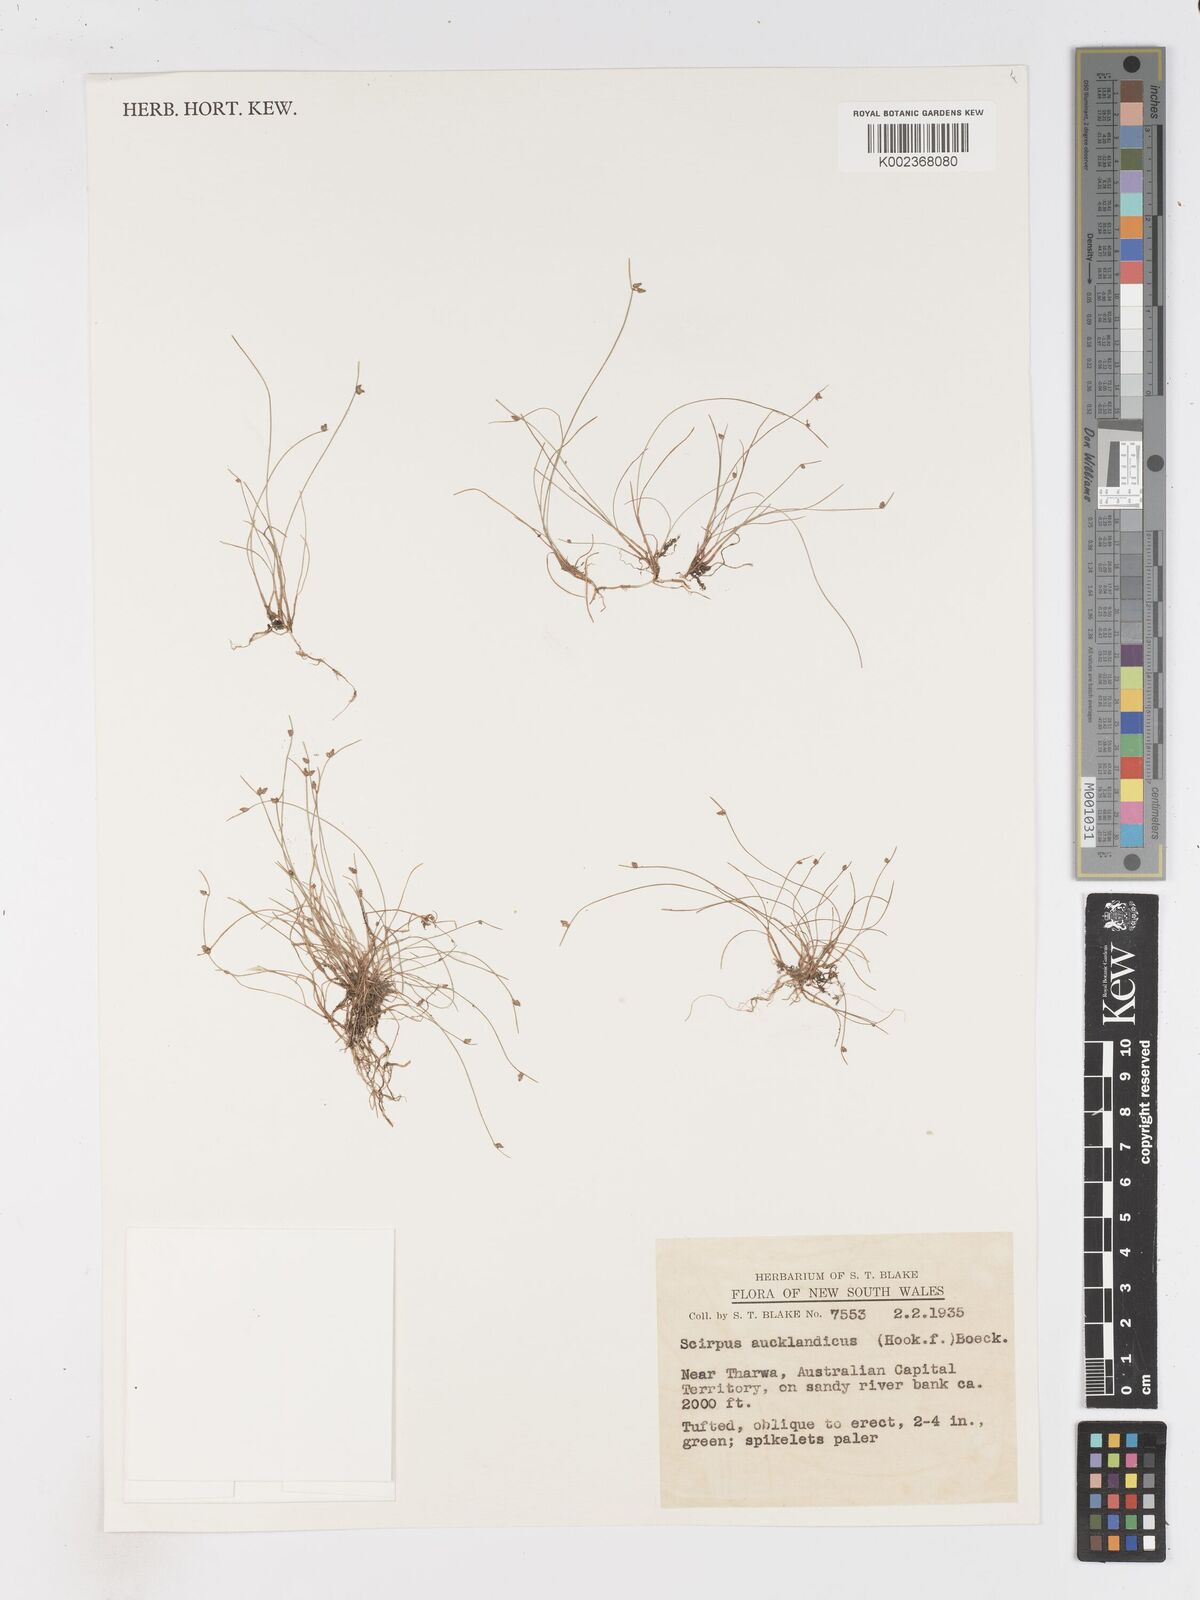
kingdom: Plantae
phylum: Tracheophyta
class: Liliopsida
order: Poales
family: Cyperaceae
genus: Isolepis
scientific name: Isolepis habra
